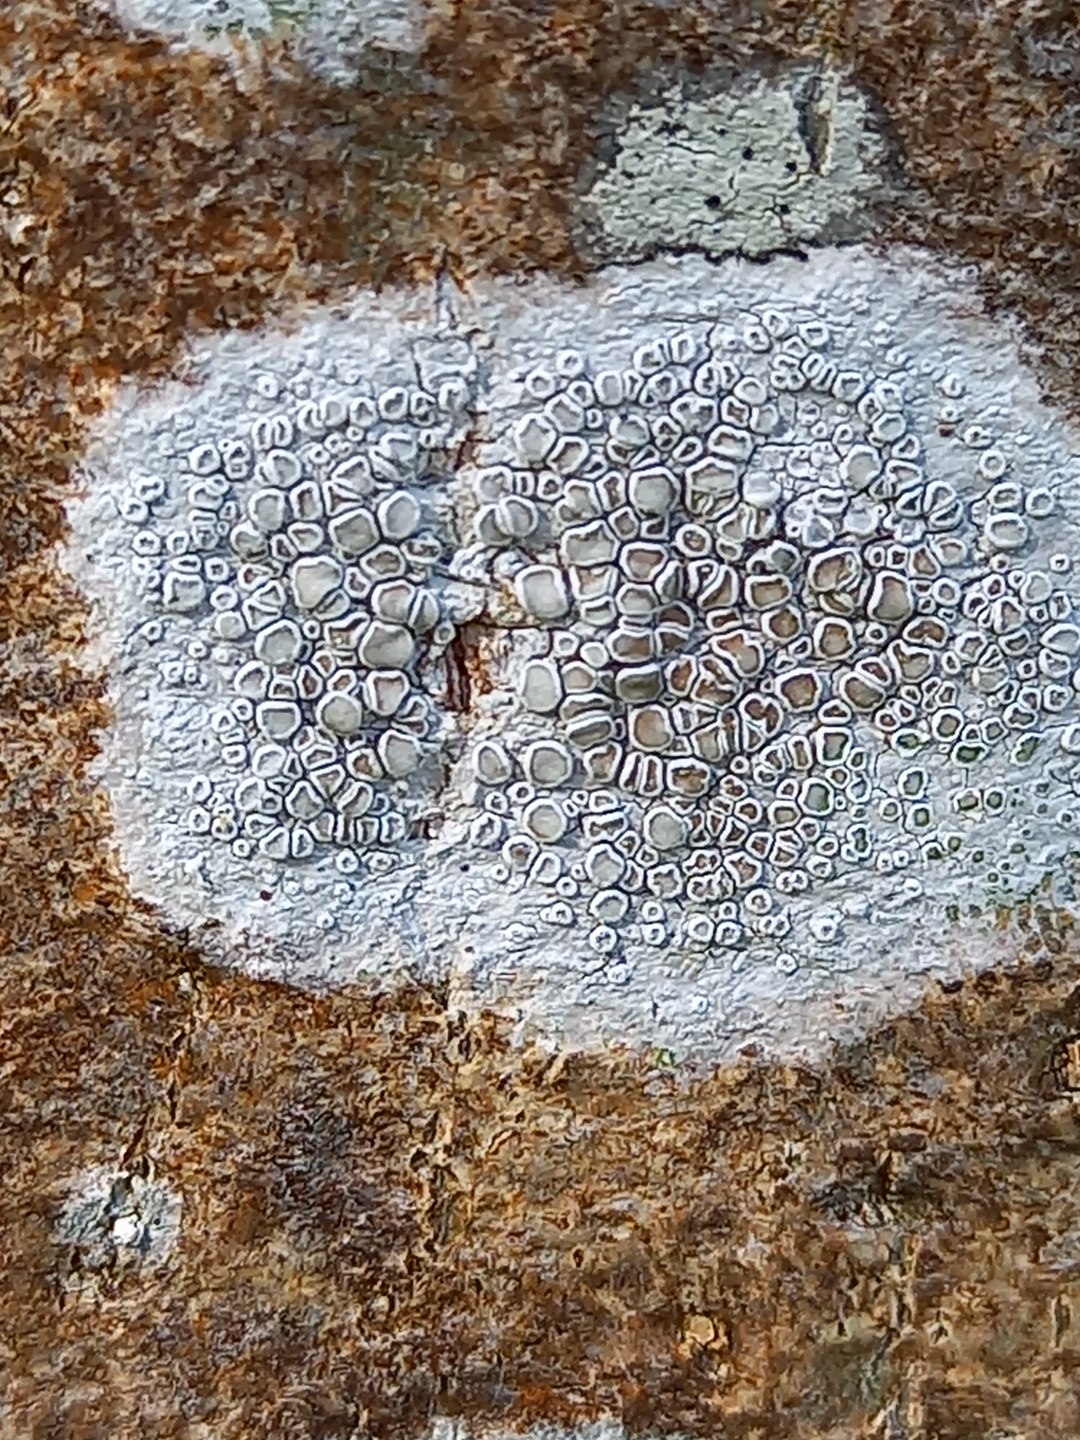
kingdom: Fungi
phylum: Ascomycota
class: Lecanoromycetes
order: Lecanorales
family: Lecanoraceae
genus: Lecanora
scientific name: Lecanora chlarotera
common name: brun kantskivelav
